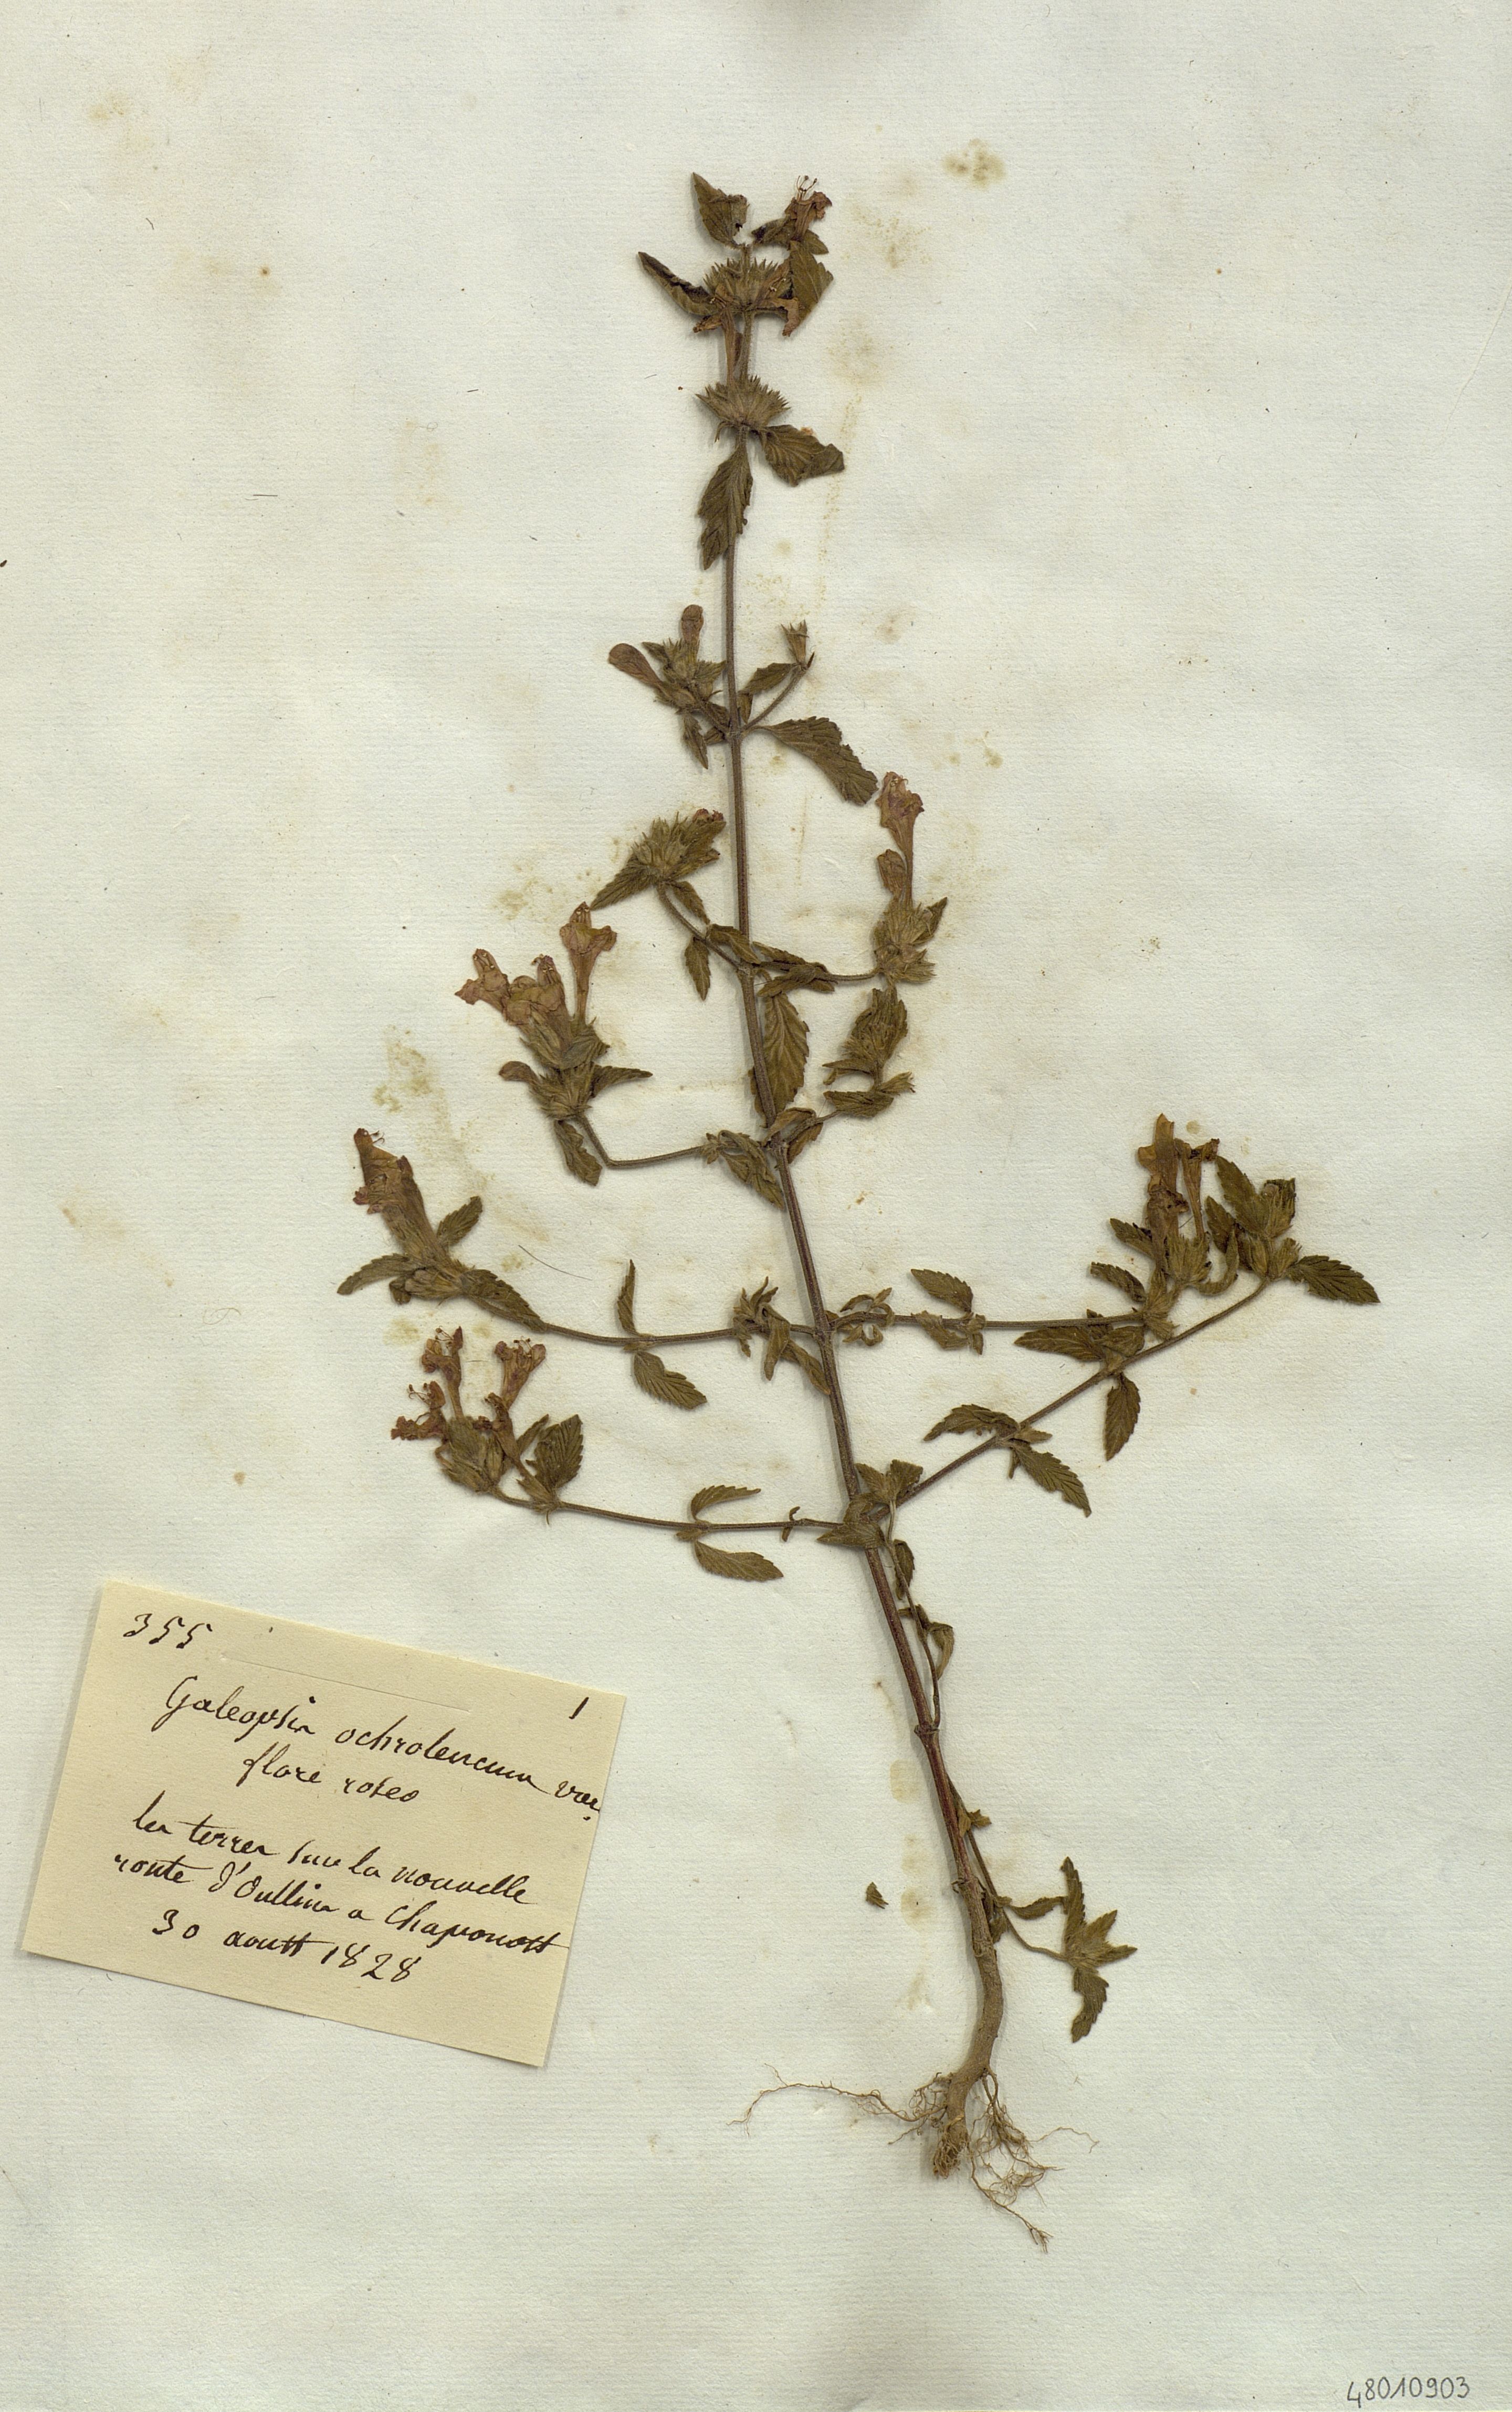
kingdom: Plantae
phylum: Tracheophyta
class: Magnoliopsida
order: Lamiales
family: Lamiaceae
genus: Galeopsis
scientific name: Galeopsis segetum
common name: Downy hemp-nettle
